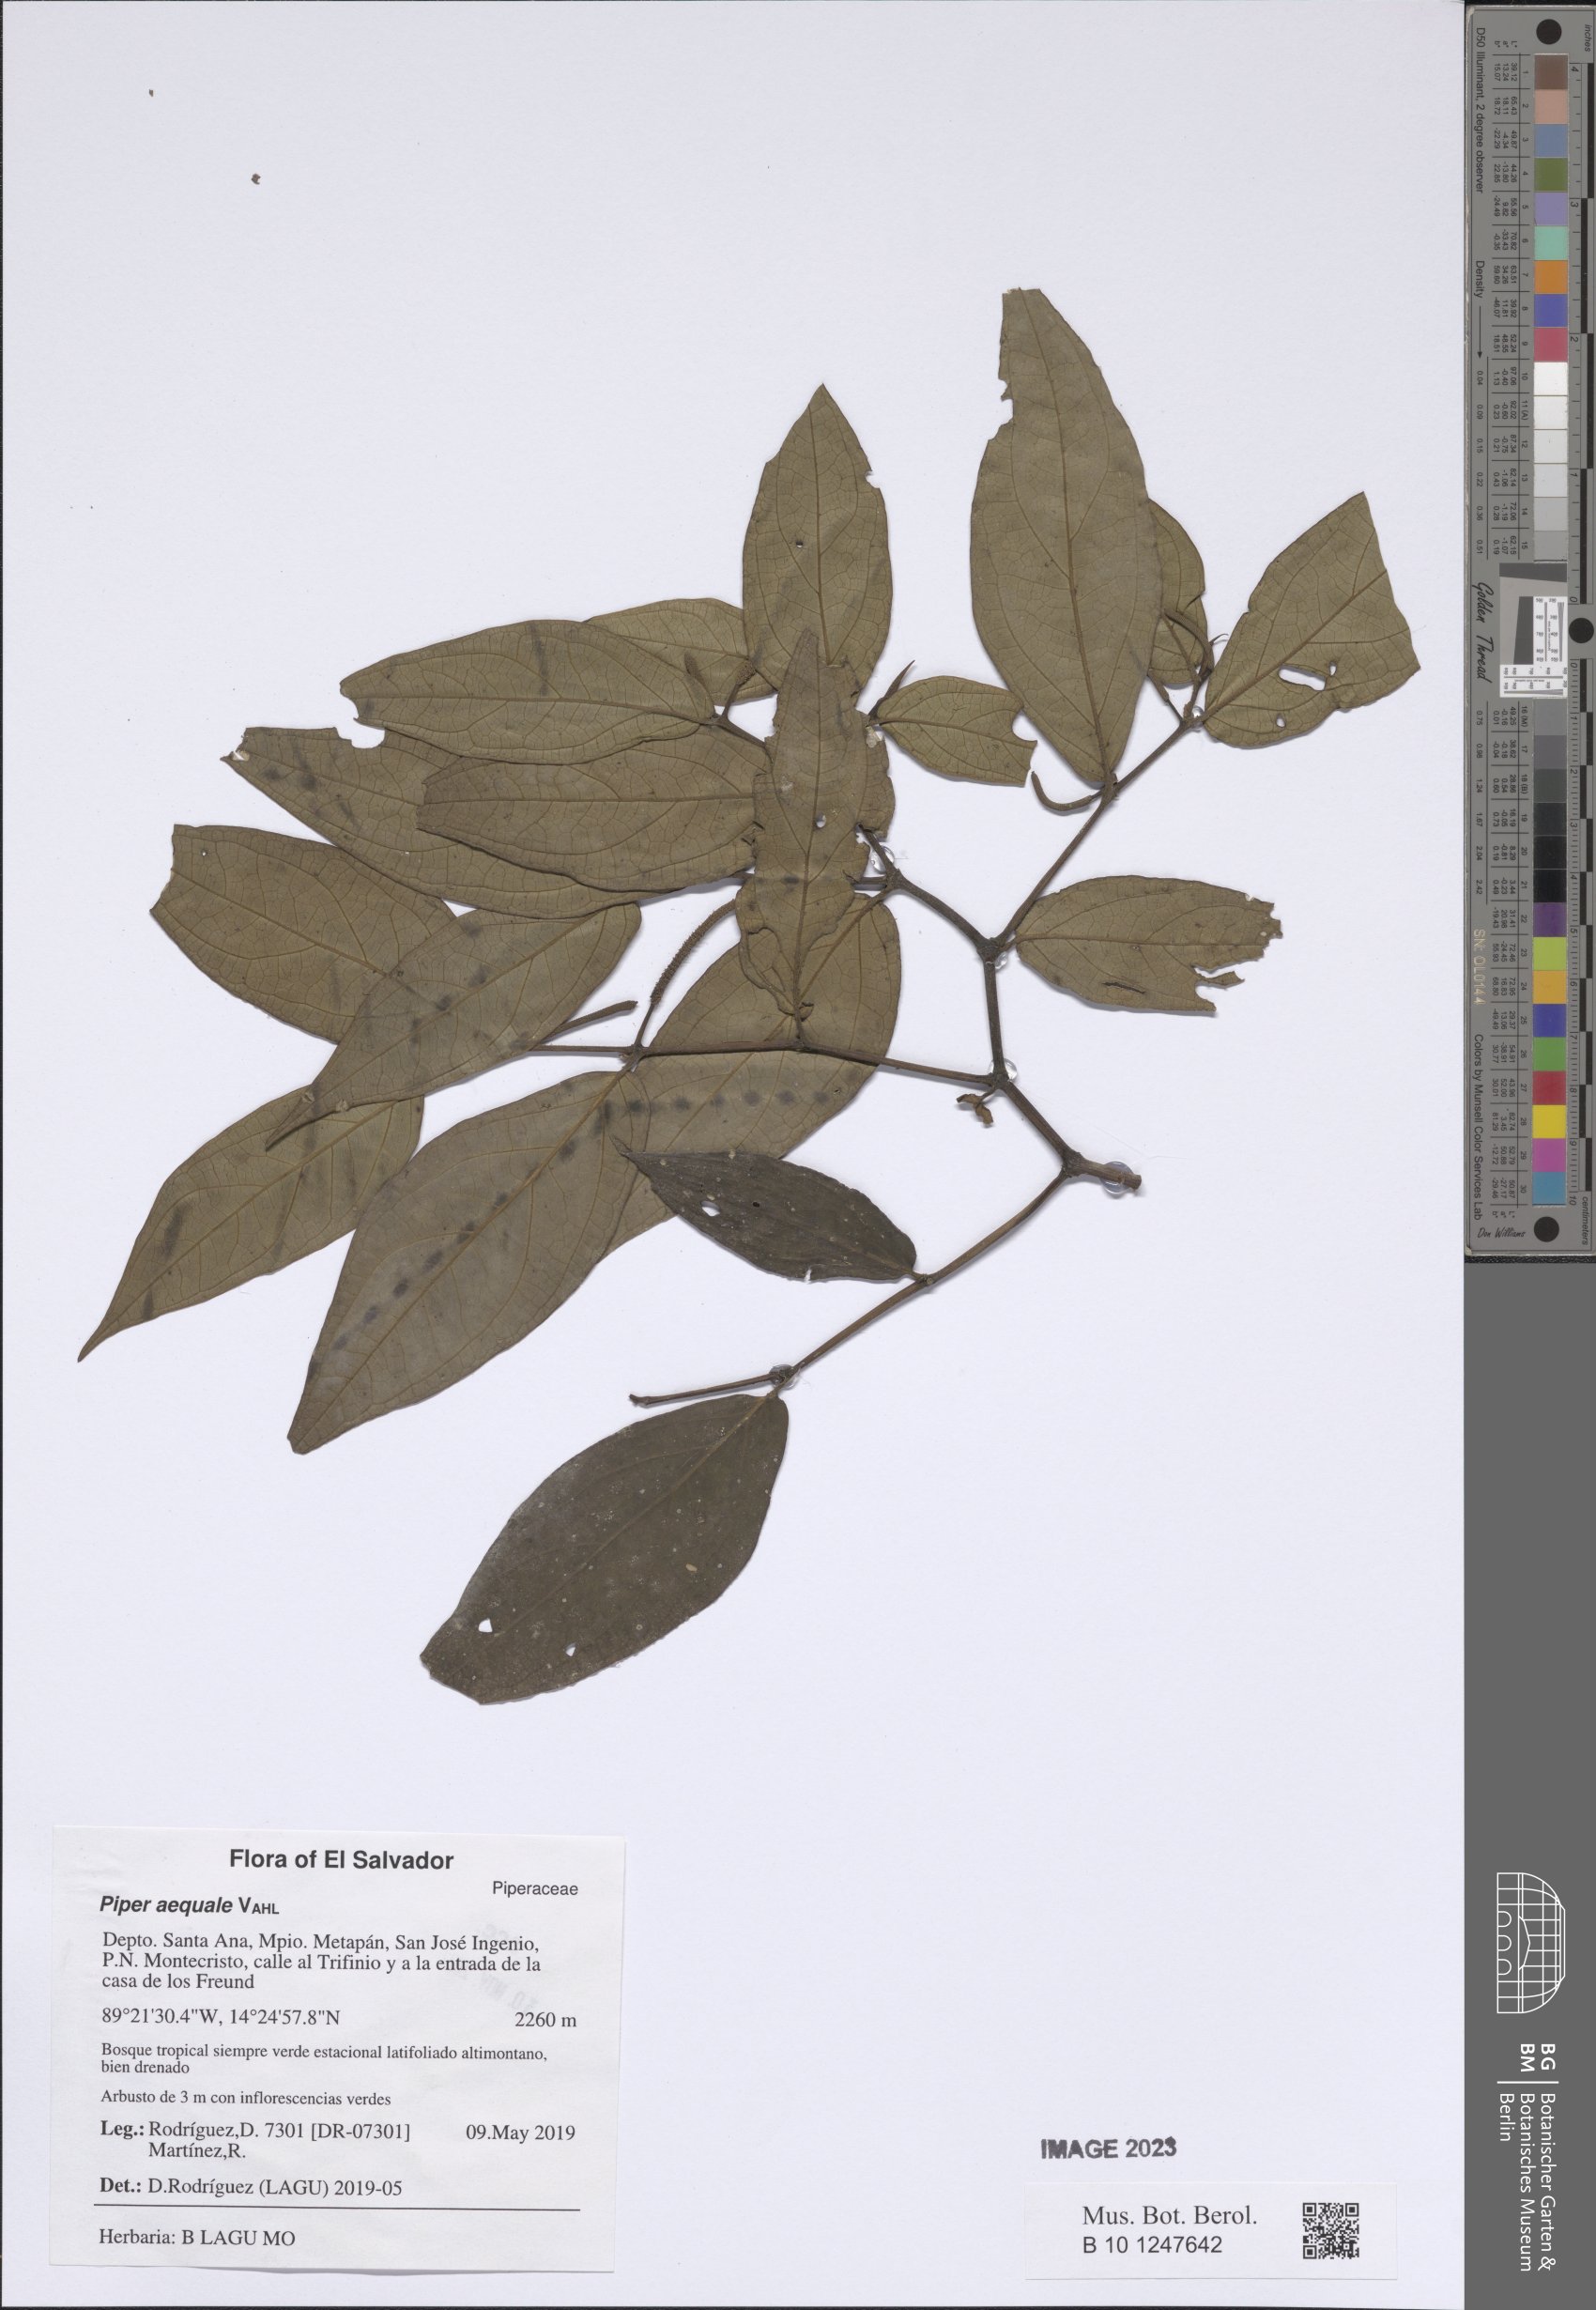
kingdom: Plantae
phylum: Tracheophyta
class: Magnoliopsida
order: Piperales
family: Piperaceae
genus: Piper
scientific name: Piper aequale
